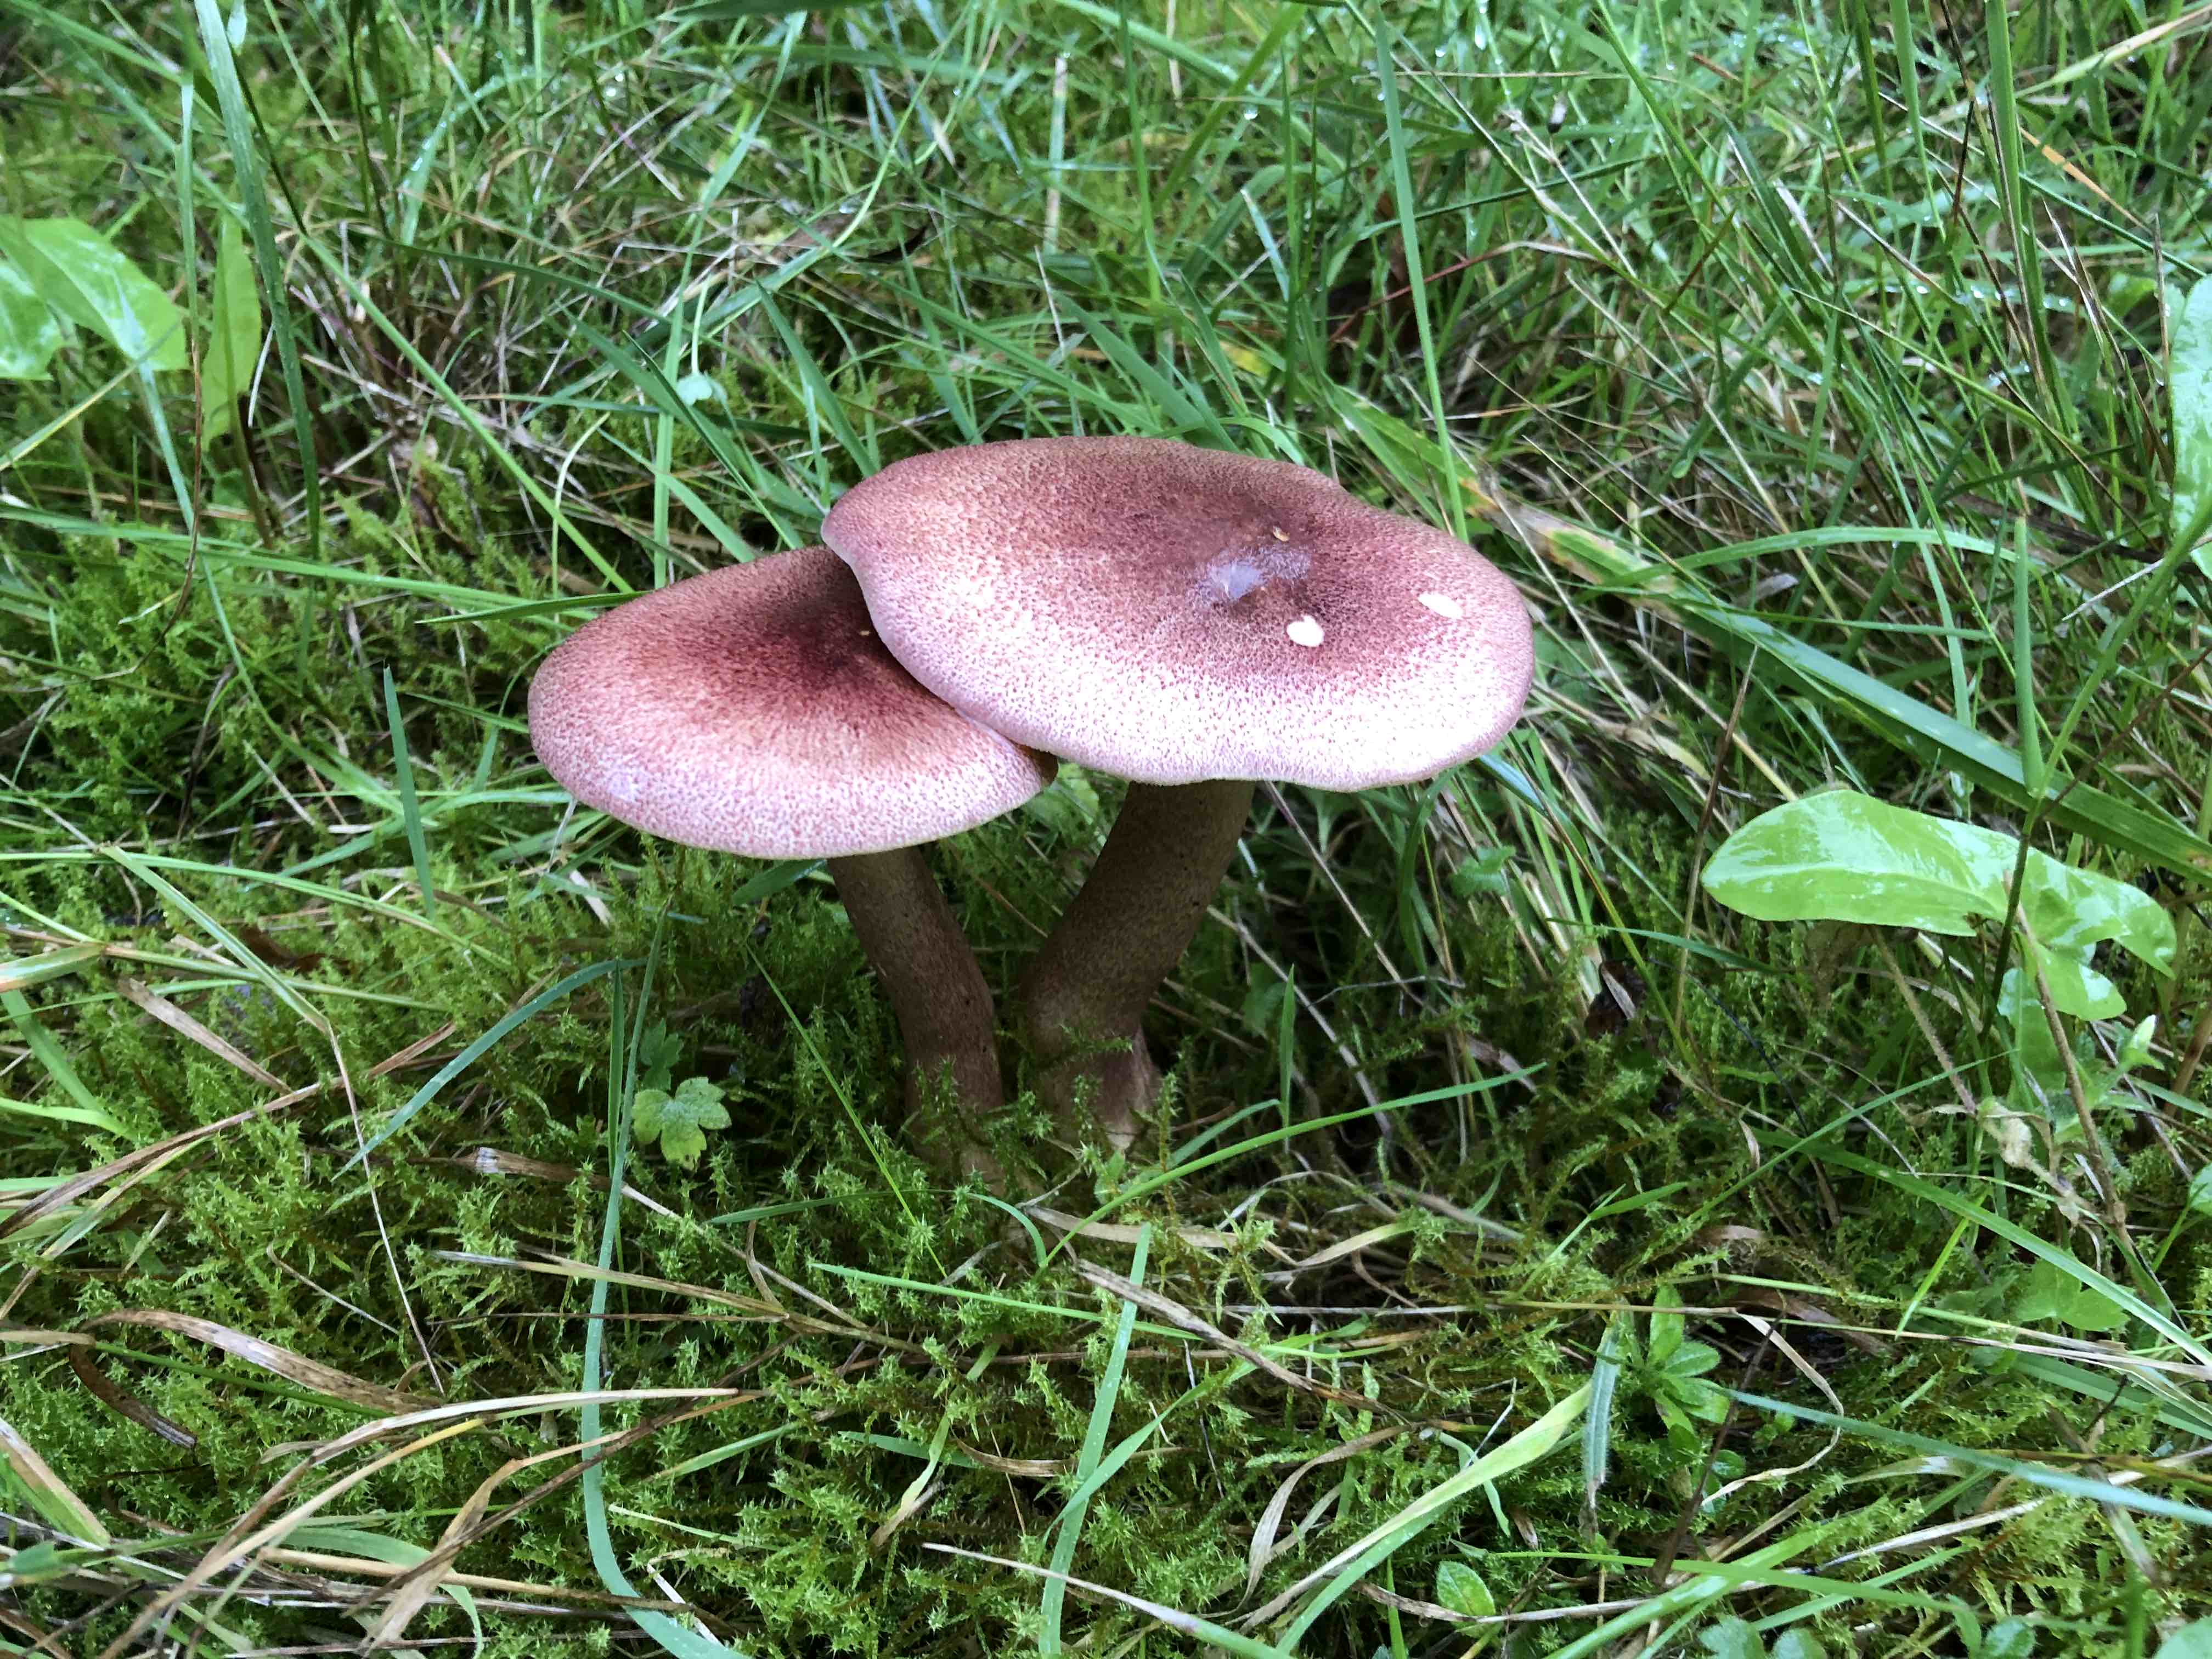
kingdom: Fungi
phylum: Basidiomycota
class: Agaricomycetes
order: Agaricales
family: Tricholomataceae
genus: Tricholomopsis
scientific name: Tricholomopsis rutilans
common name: purpur-væbnerhat
